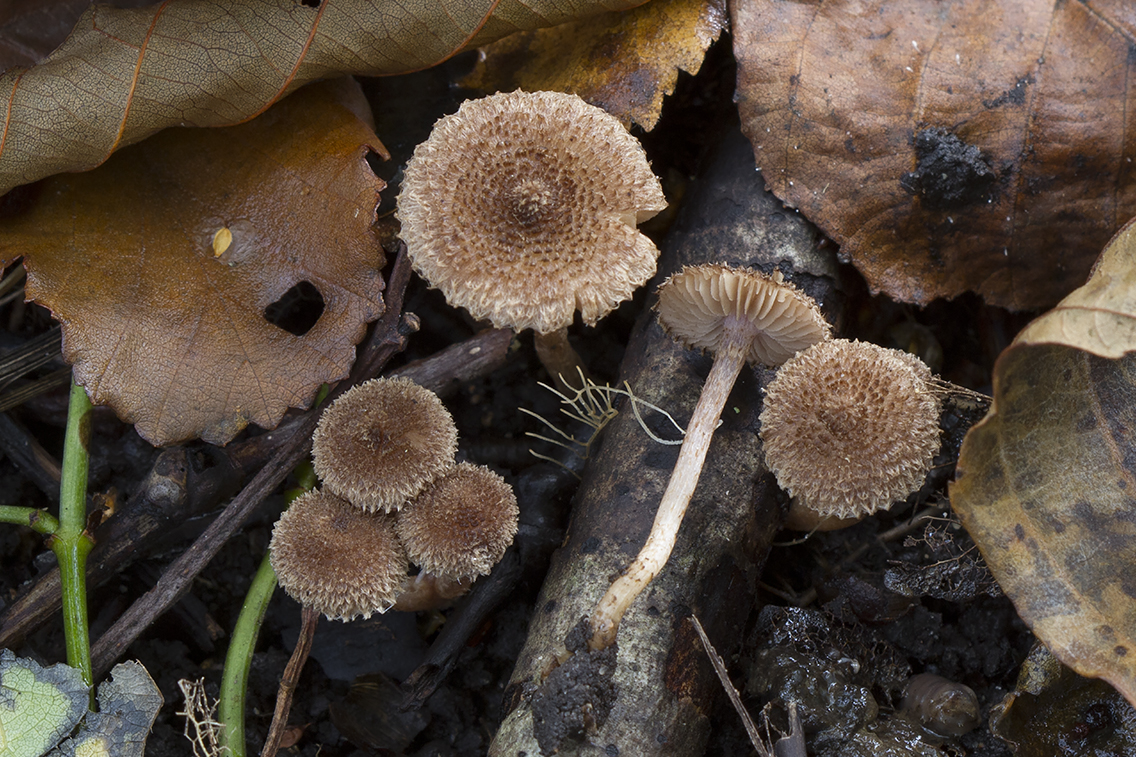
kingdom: Fungi
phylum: Basidiomycota
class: Agaricomycetes
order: Agaricales
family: Inocybaceae
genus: Inocybe
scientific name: Inocybe squarrosa
